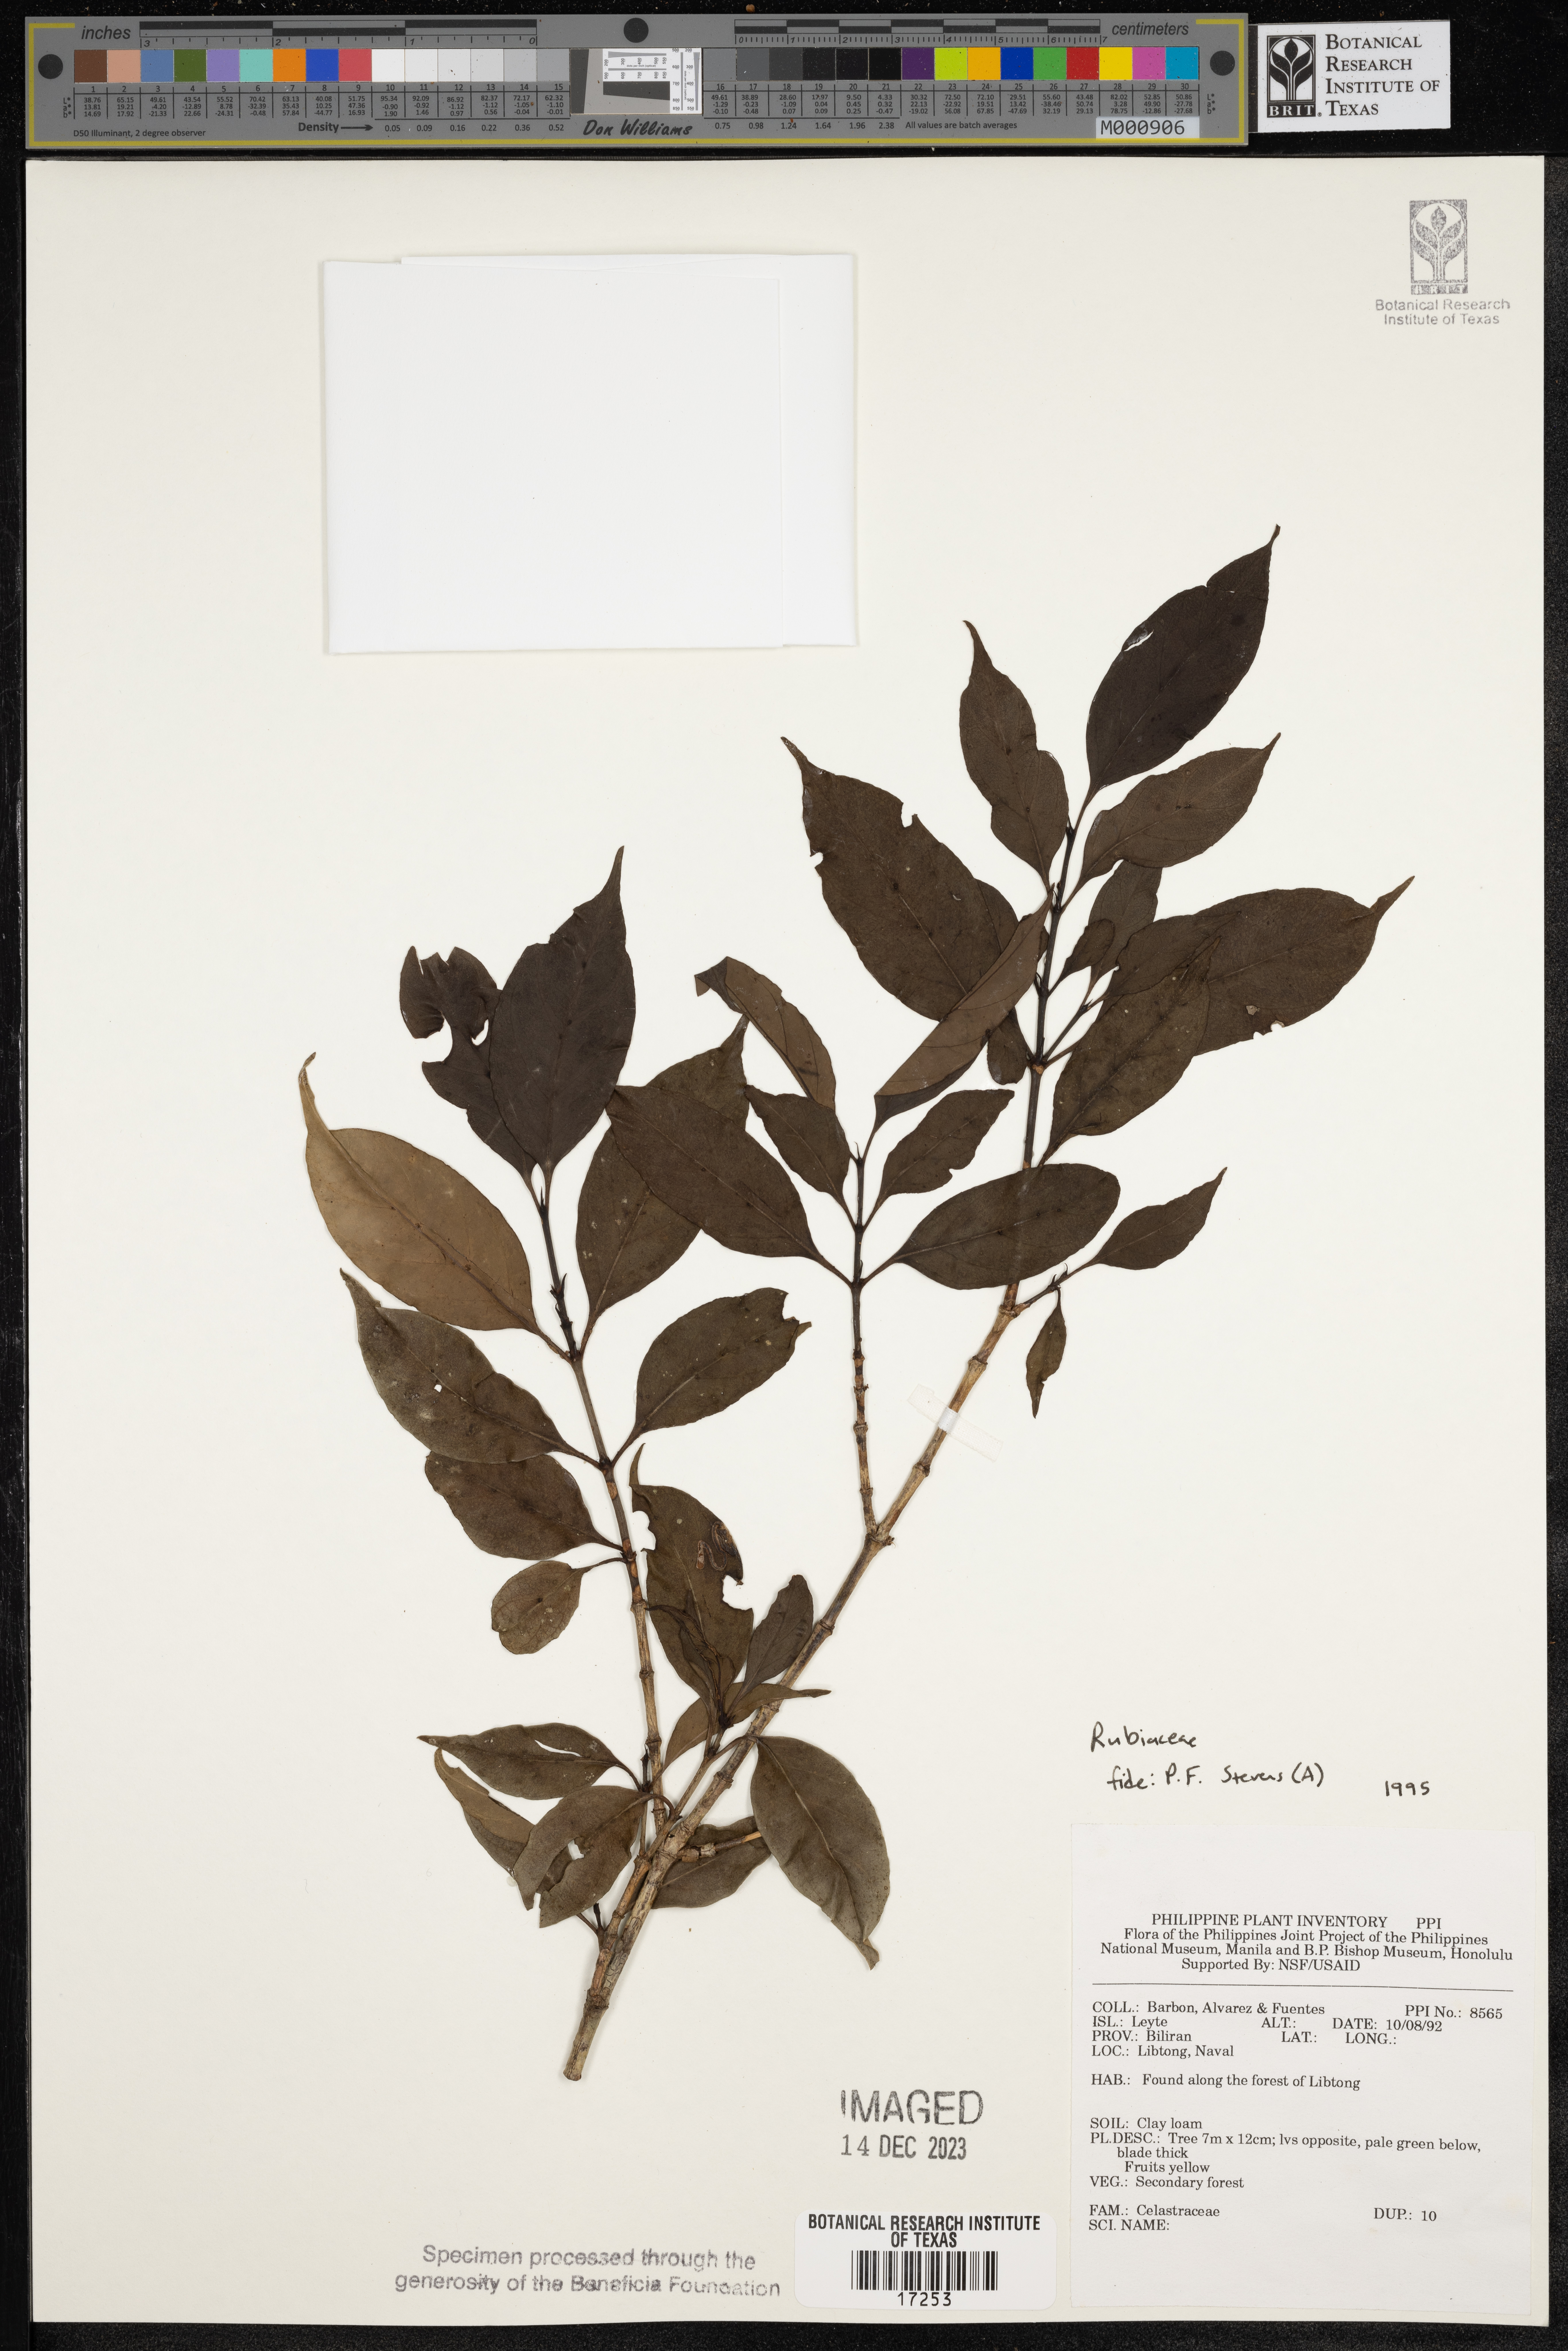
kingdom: Plantae
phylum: Tracheophyta
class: Magnoliopsida
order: Celastrales
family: Celastraceae
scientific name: Celastraceae
